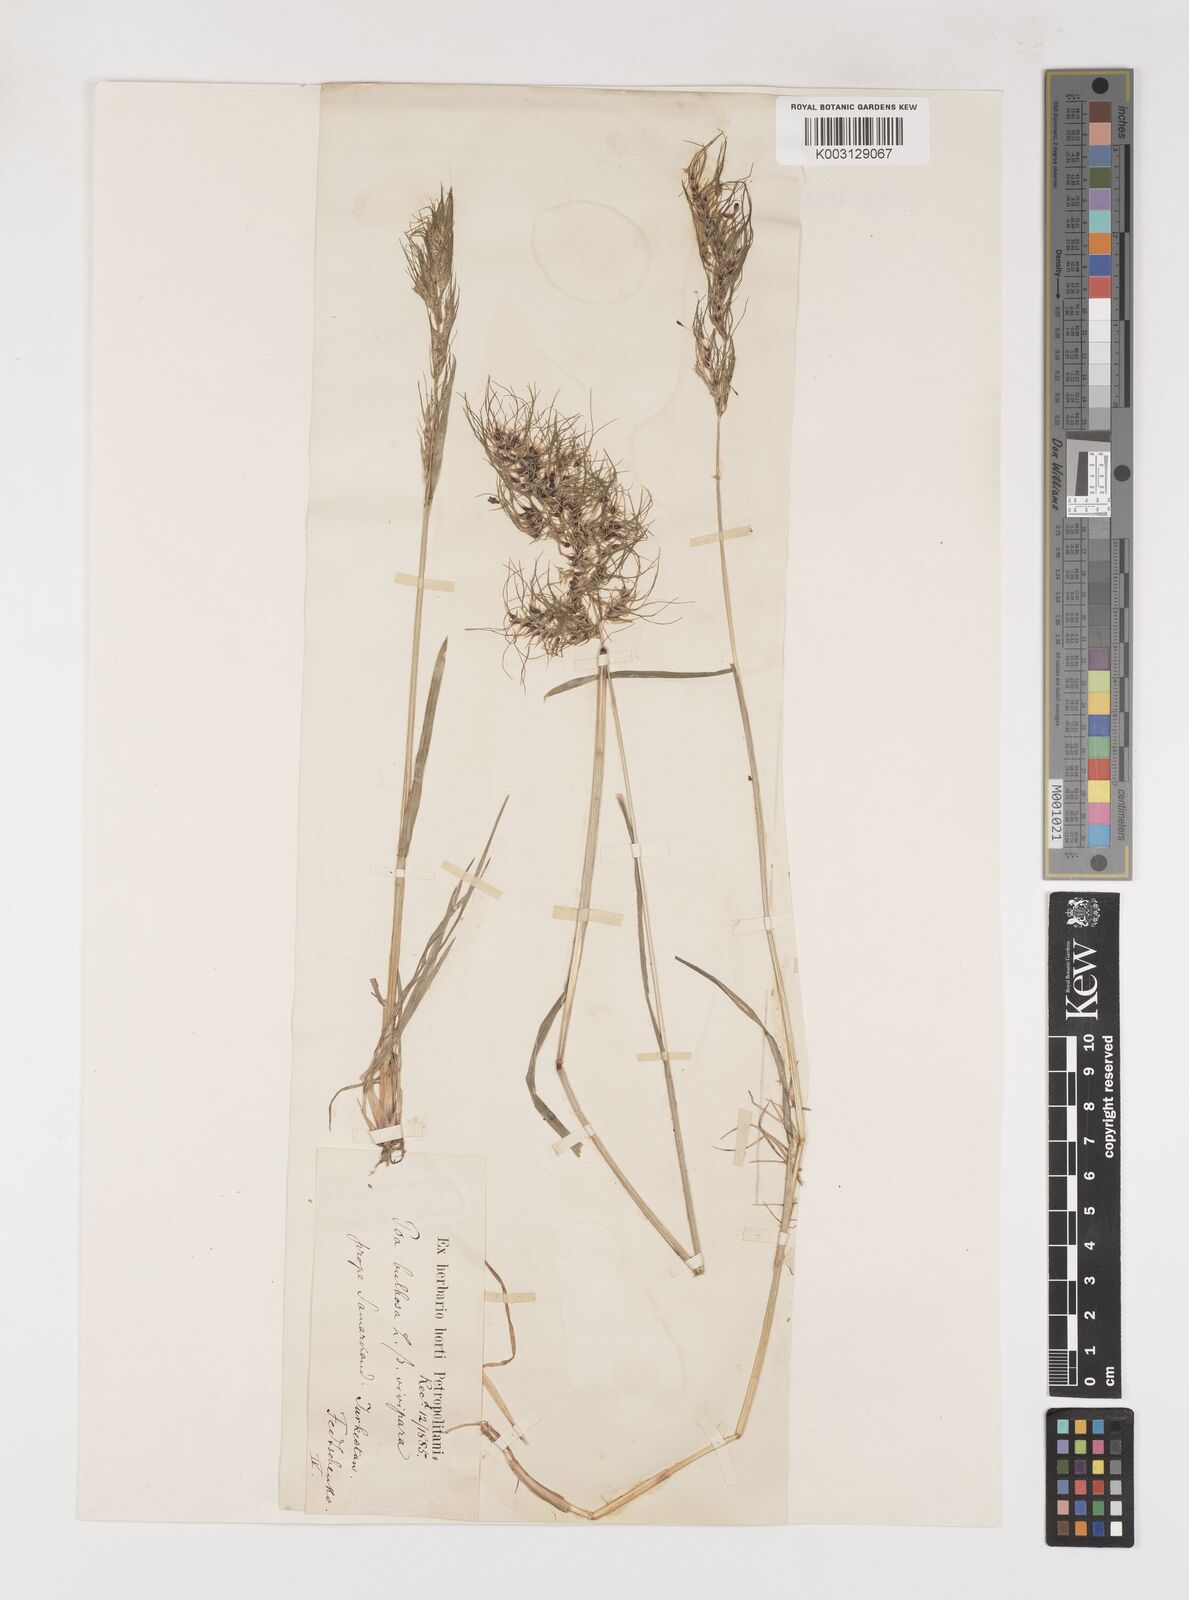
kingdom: Plantae
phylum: Tracheophyta
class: Liliopsida
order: Poales
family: Poaceae
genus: Poa
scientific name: Poa
